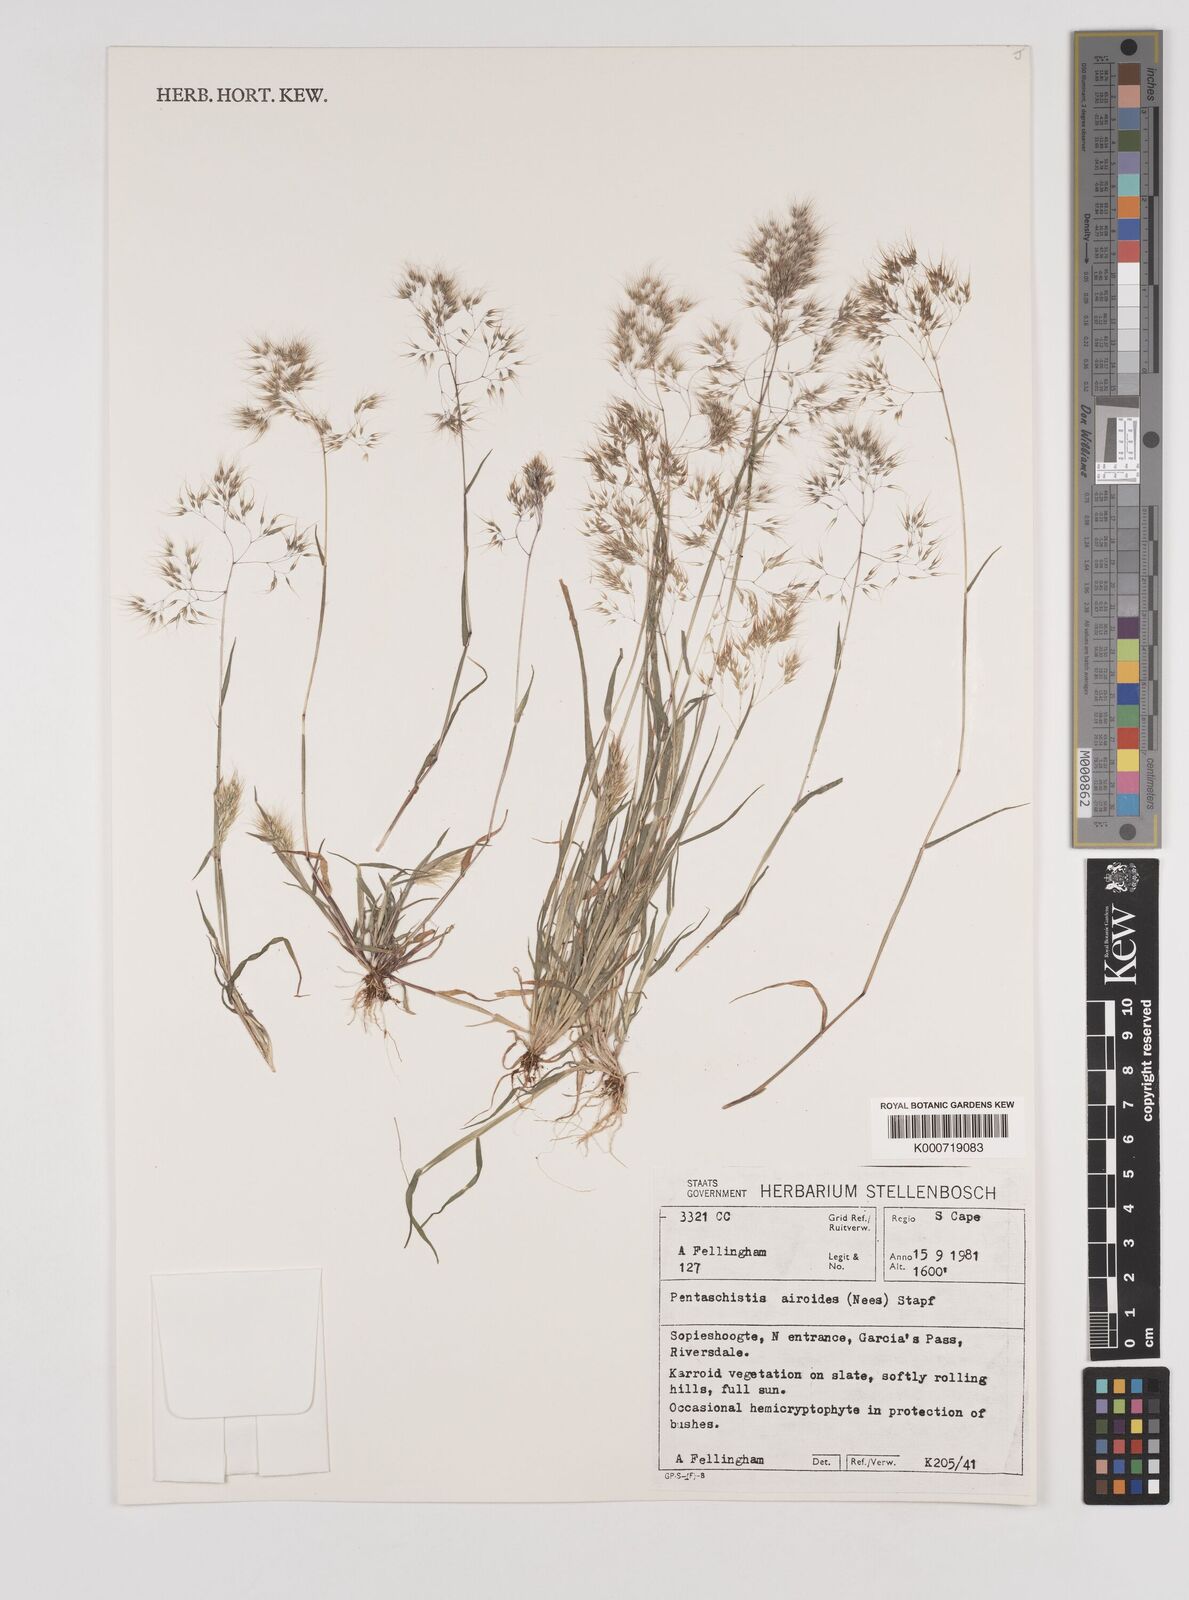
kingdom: Plantae
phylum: Tracheophyta
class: Liliopsida
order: Poales
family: Poaceae
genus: Pentameris
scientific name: Pentameris airoides
